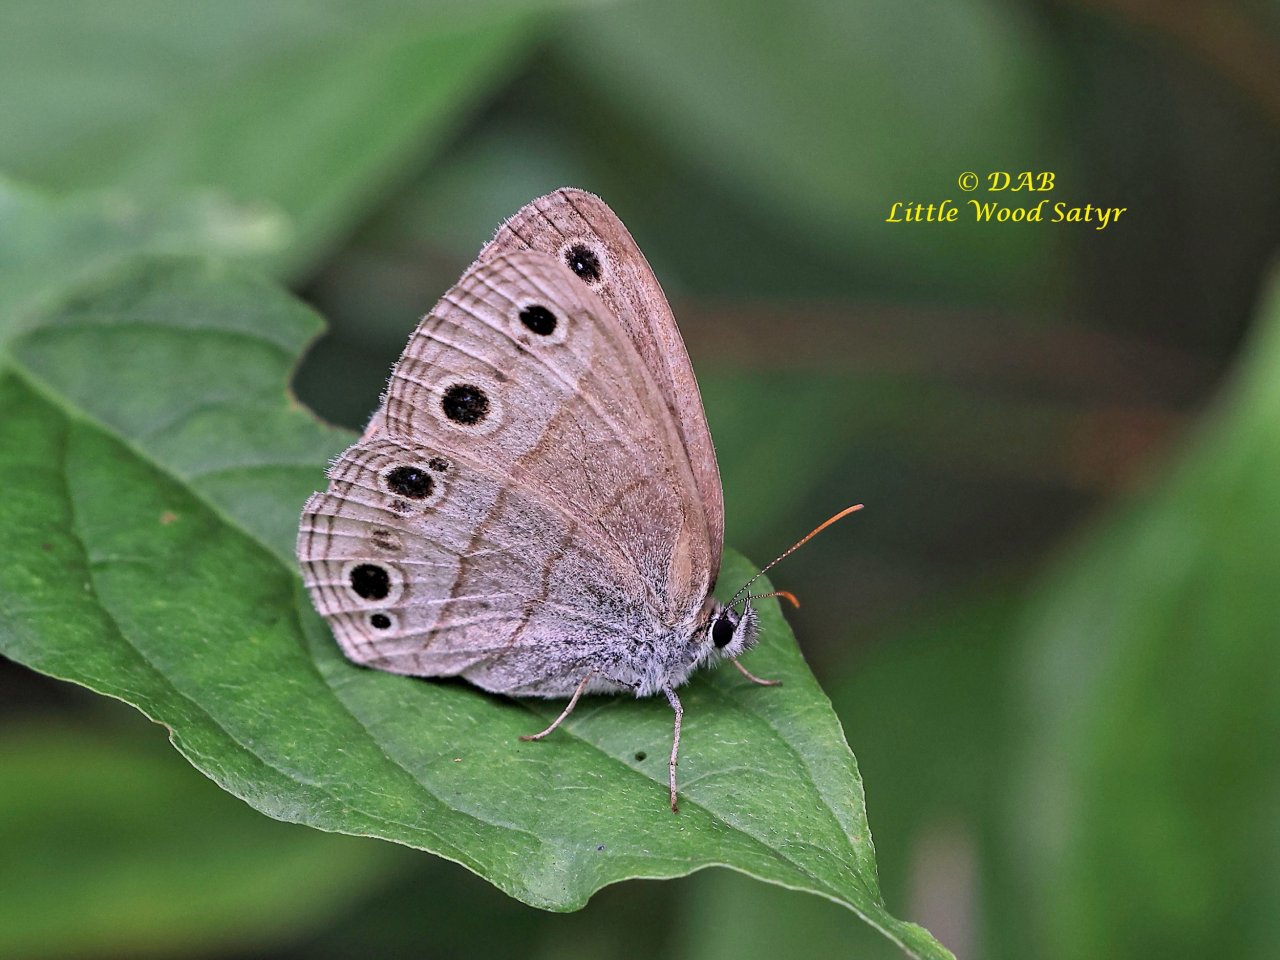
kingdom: Animalia
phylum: Arthropoda
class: Insecta
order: Lepidoptera
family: Nymphalidae
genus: Euptychia
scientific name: Euptychia cymela
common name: Little Wood Satyr
